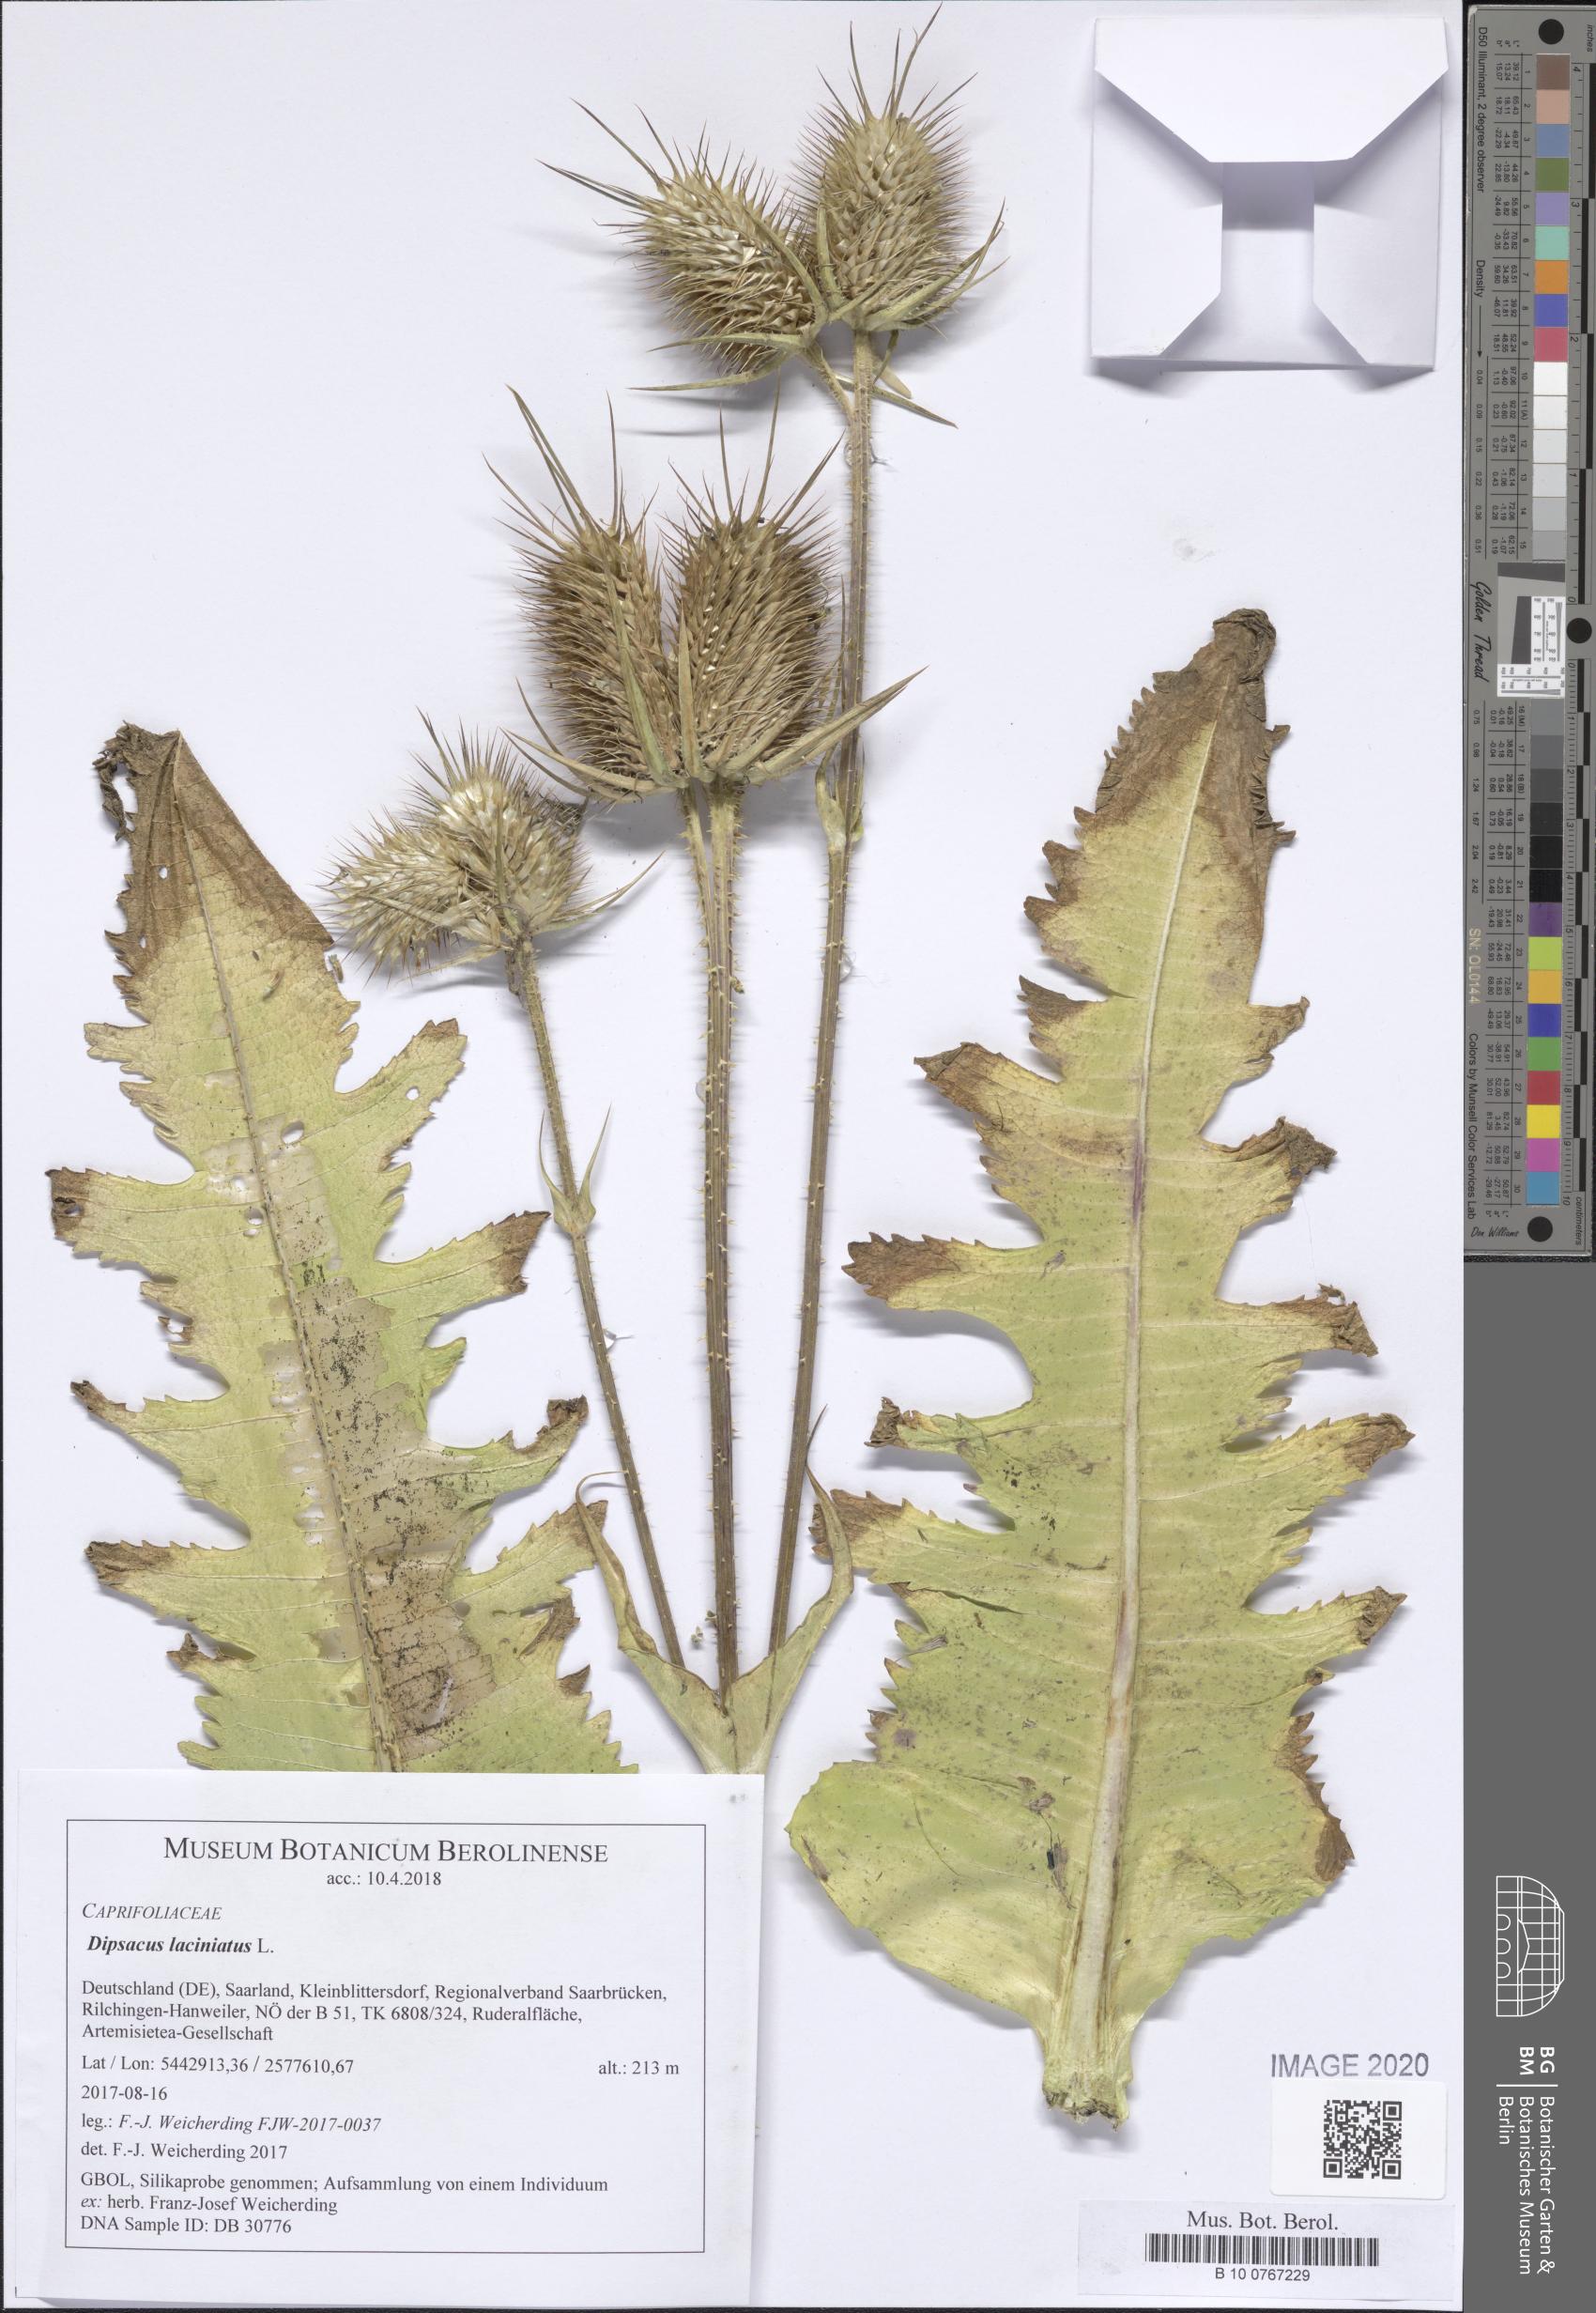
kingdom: Plantae
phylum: Tracheophyta
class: Magnoliopsida
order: Dipsacales
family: Caprifoliaceae
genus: Dipsacus
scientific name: Dipsacus laciniatus
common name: Cut-leaved teasel
